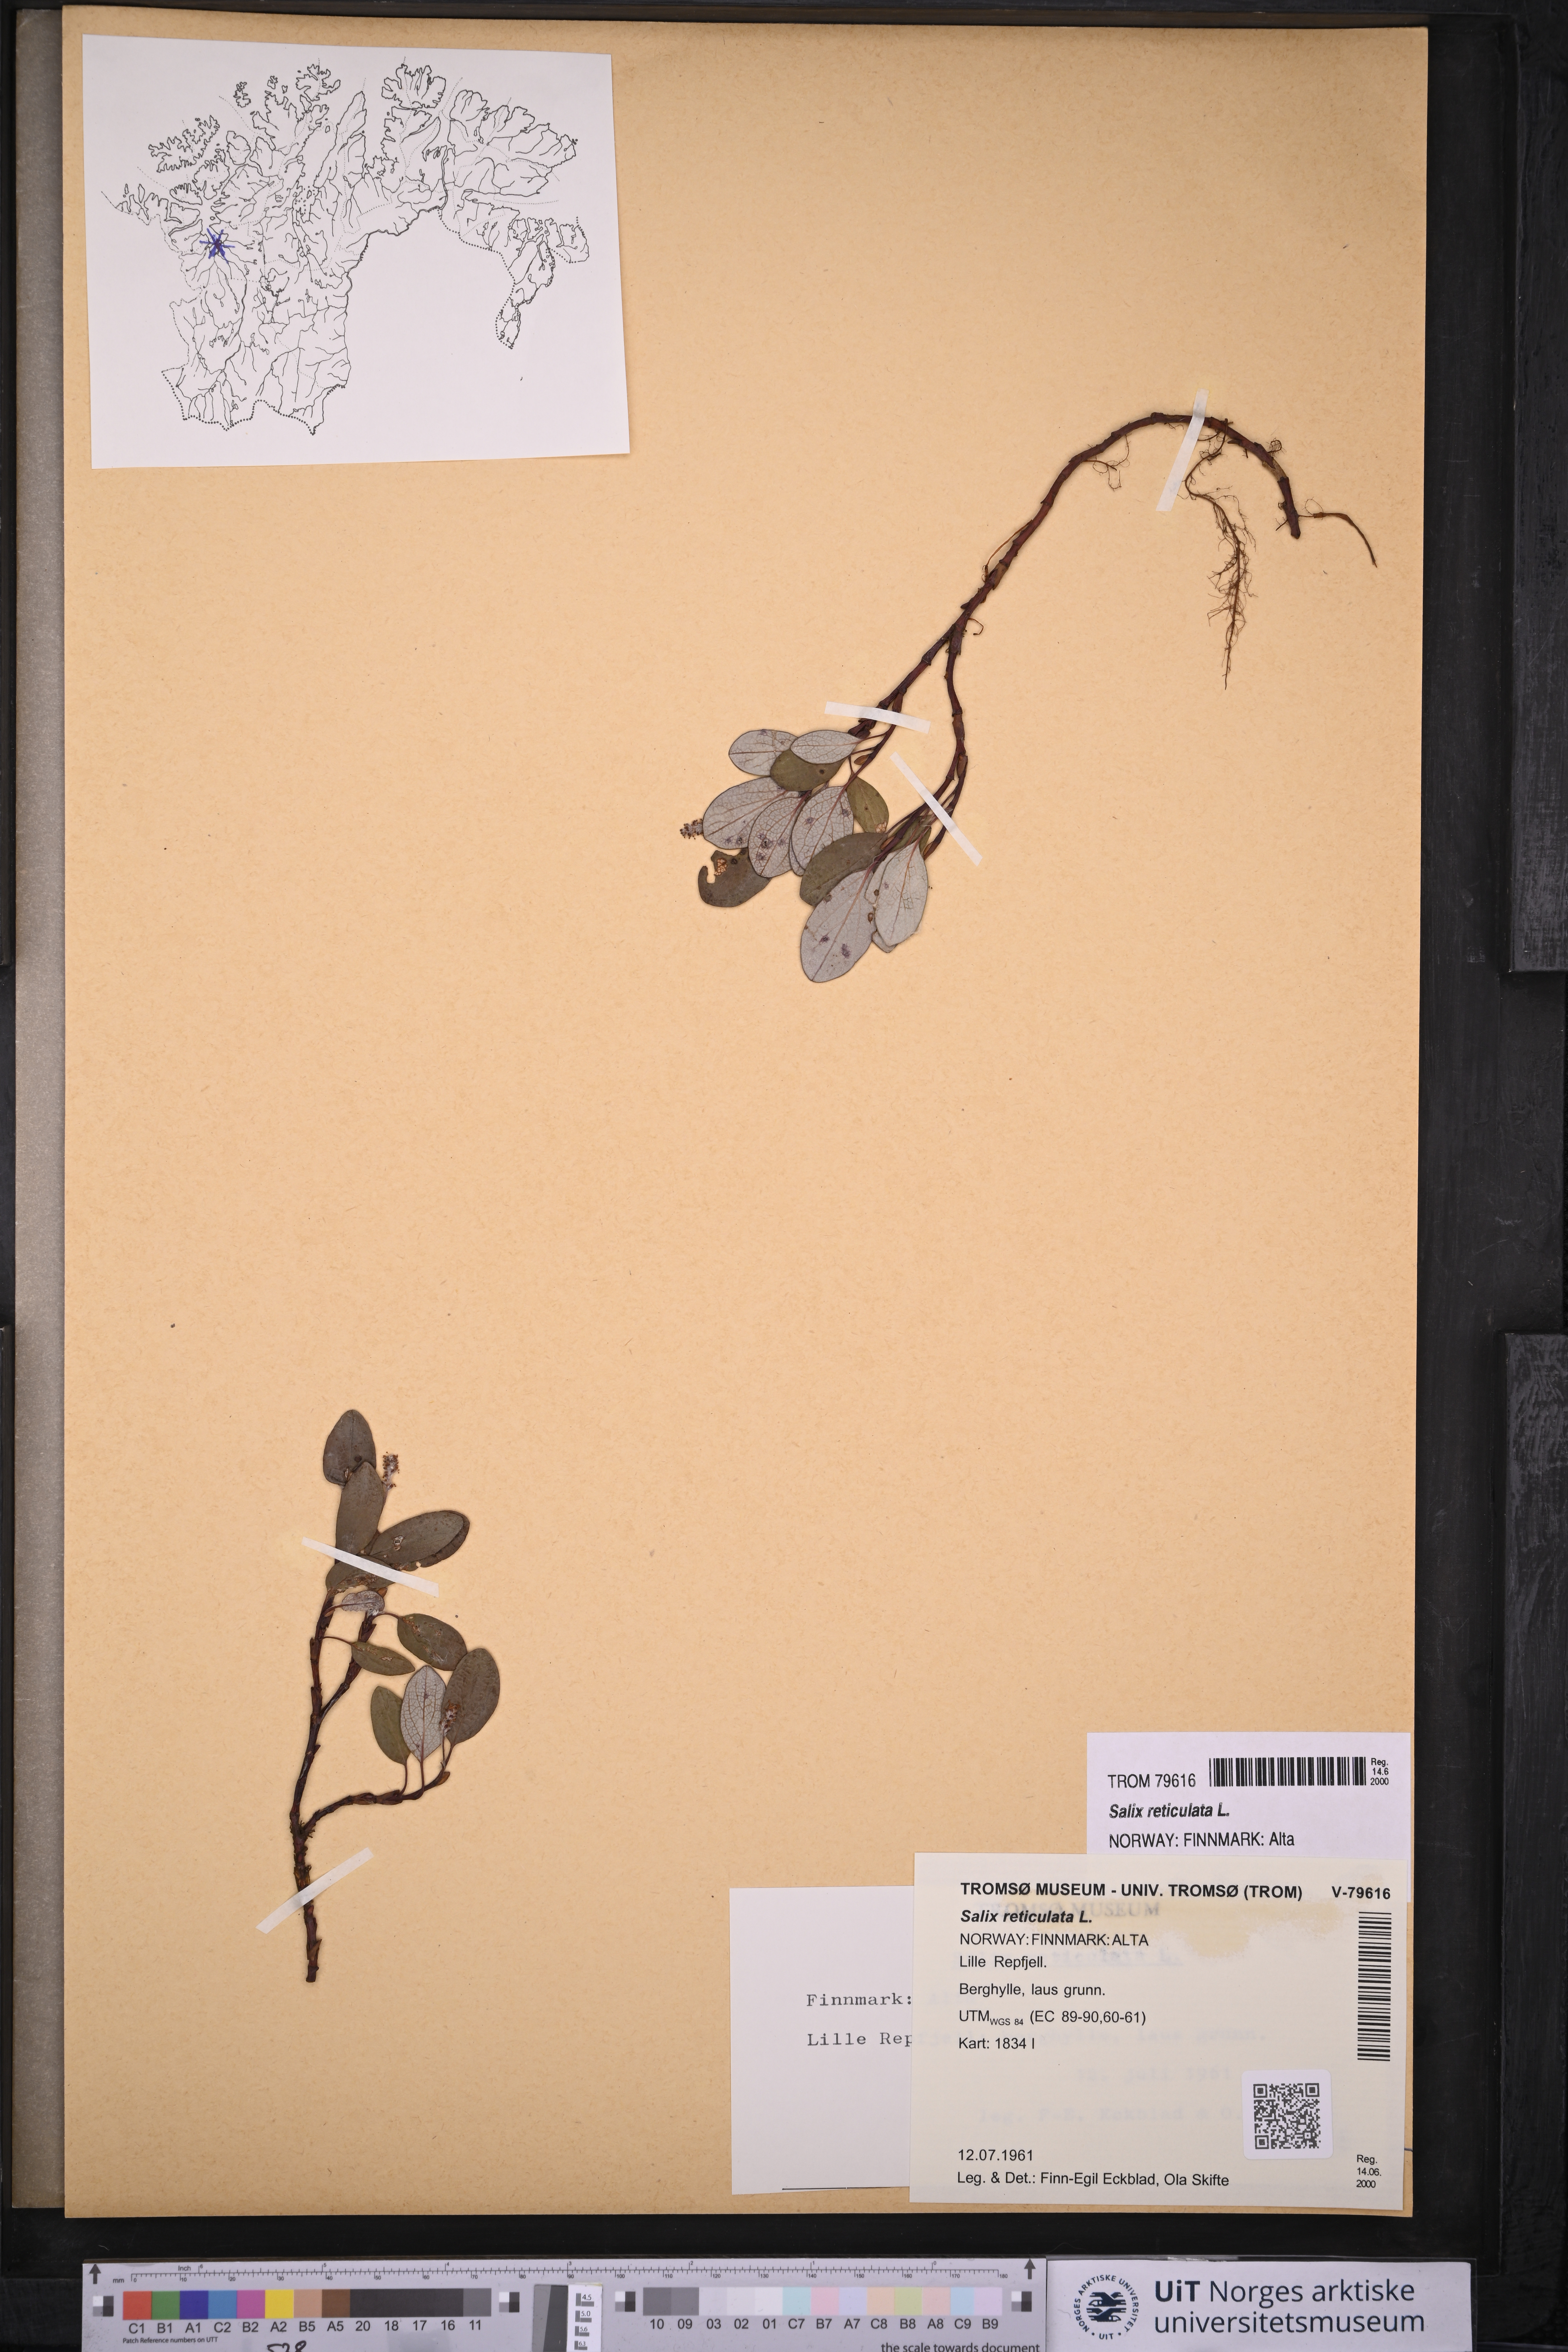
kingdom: Plantae
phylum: Tracheophyta
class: Magnoliopsida
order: Malpighiales
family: Salicaceae
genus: Salix
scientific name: Salix reticulata
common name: Net-leaved willow
